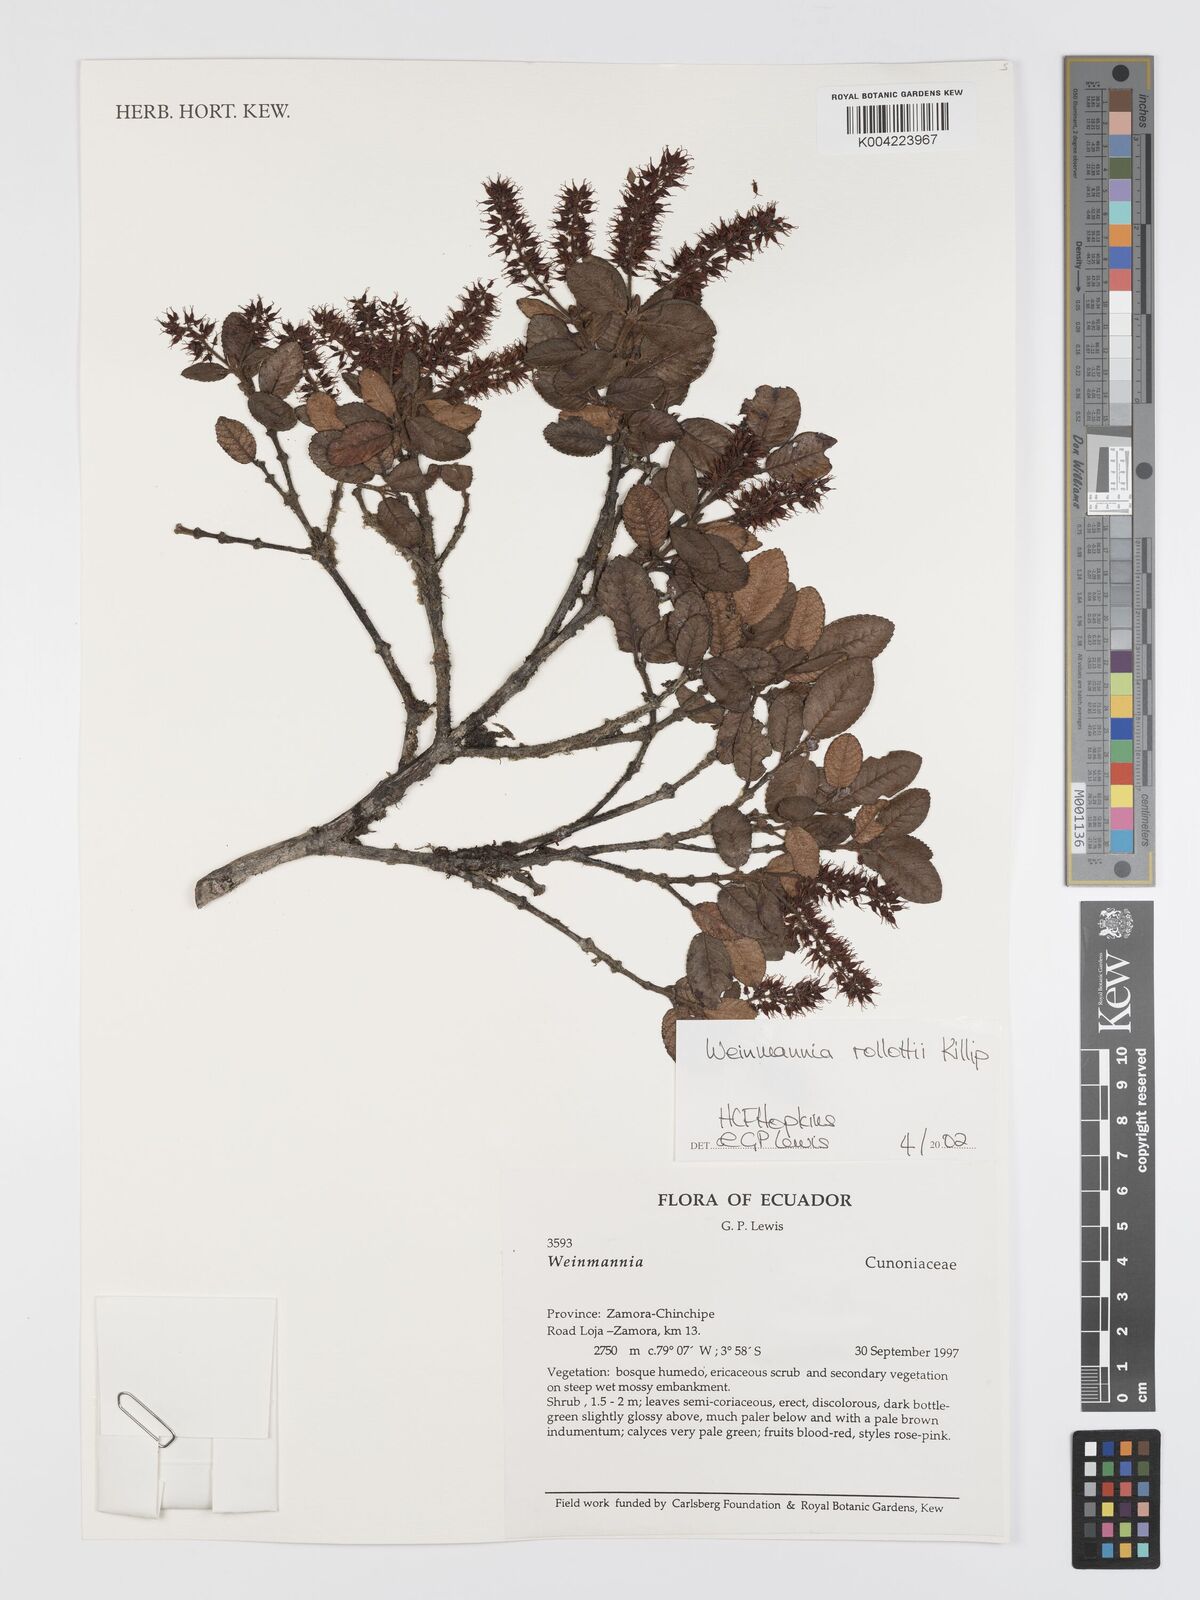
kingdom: Plantae
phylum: Tracheophyta
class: Magnoliopsida
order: Oxalidales
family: Cunoniaceae
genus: Weinmannia
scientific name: Weinmannia rollottii
